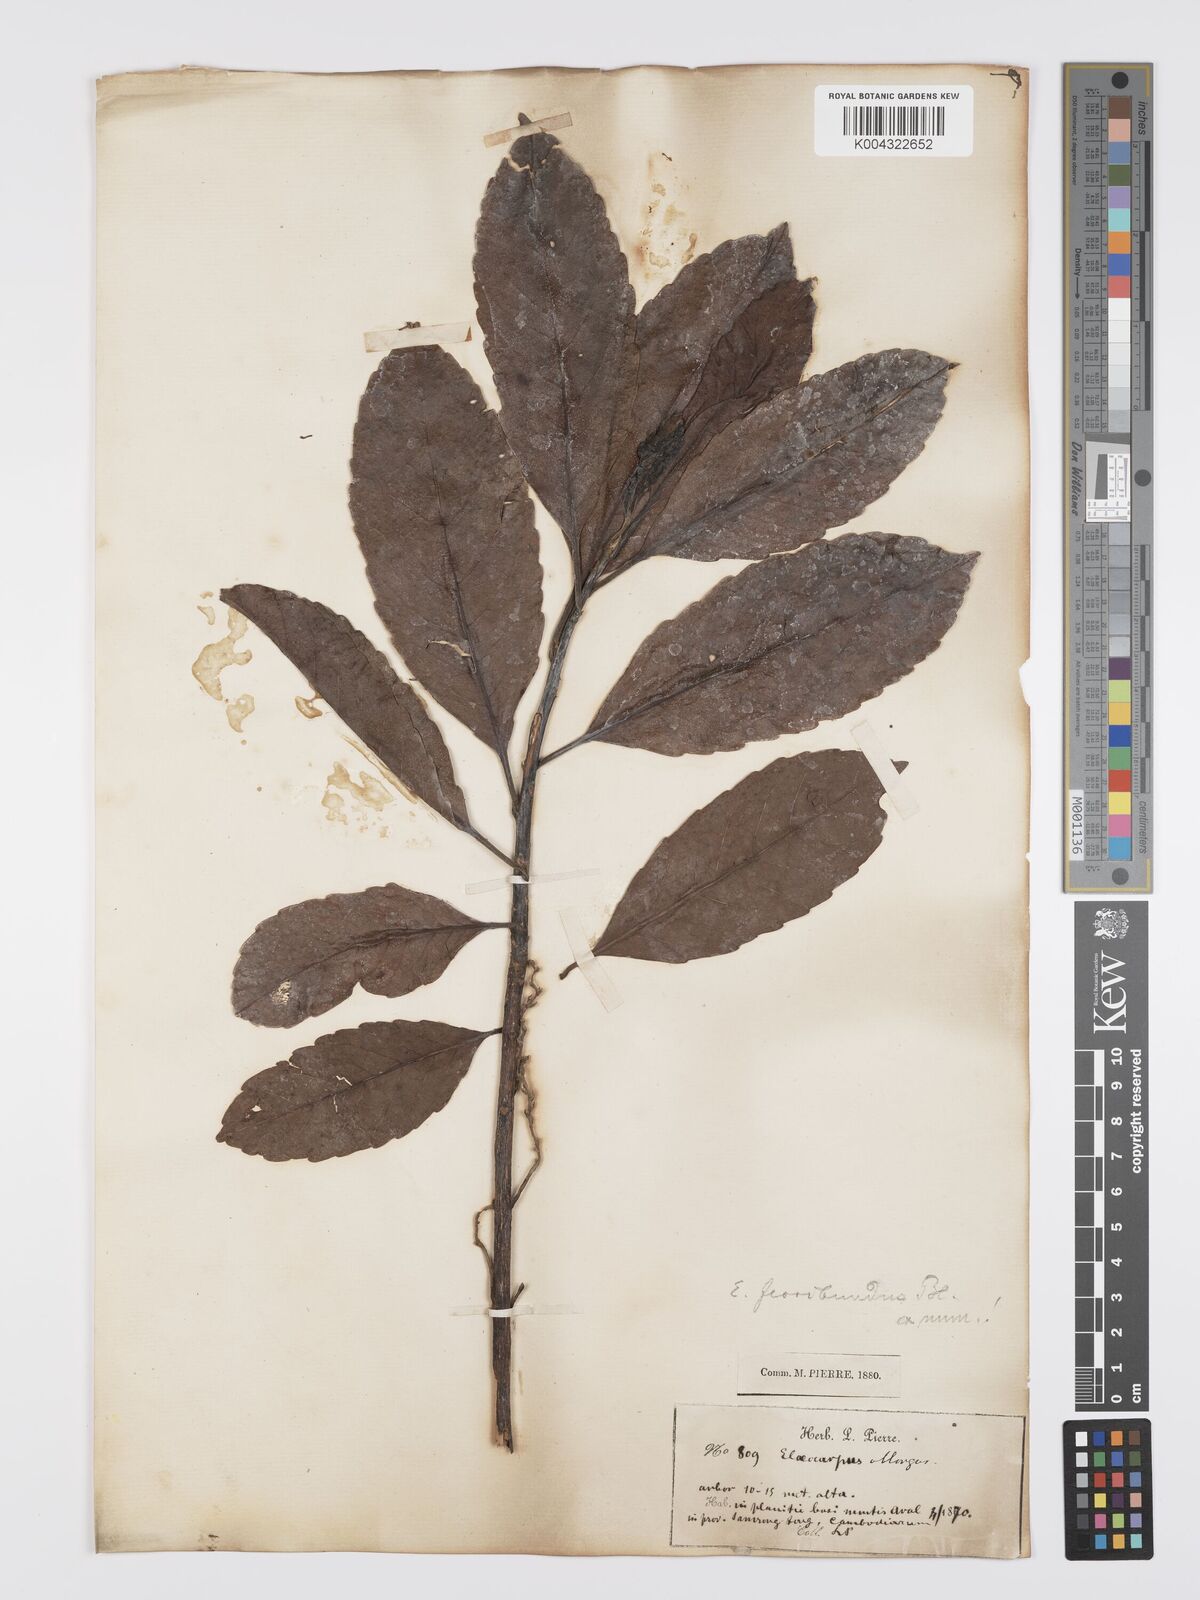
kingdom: Plantae
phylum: Tracheophyta
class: Magnoliopsida
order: Oxalidales
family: Elaeocarpaceae
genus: Elaeocarpus
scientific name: Elaeocarpus floribundus
